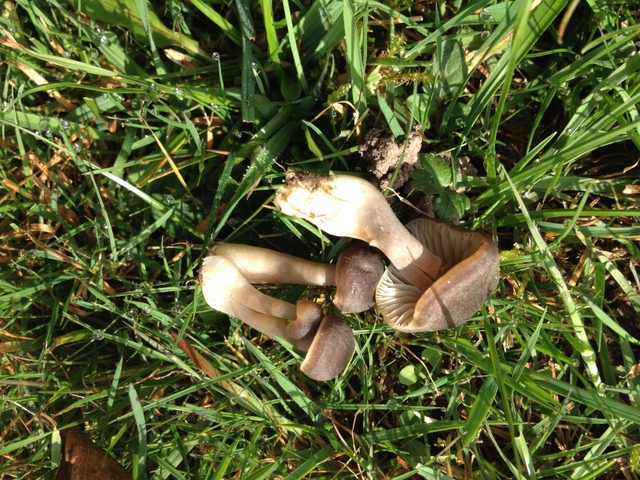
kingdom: Fungi
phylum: Basidiomycota
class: Agaricomycetes
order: Agaricales
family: Hygrophoraceae
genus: Neohygrocybe
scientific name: Neohygrocybe nitrata
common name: stinkende vokshat
